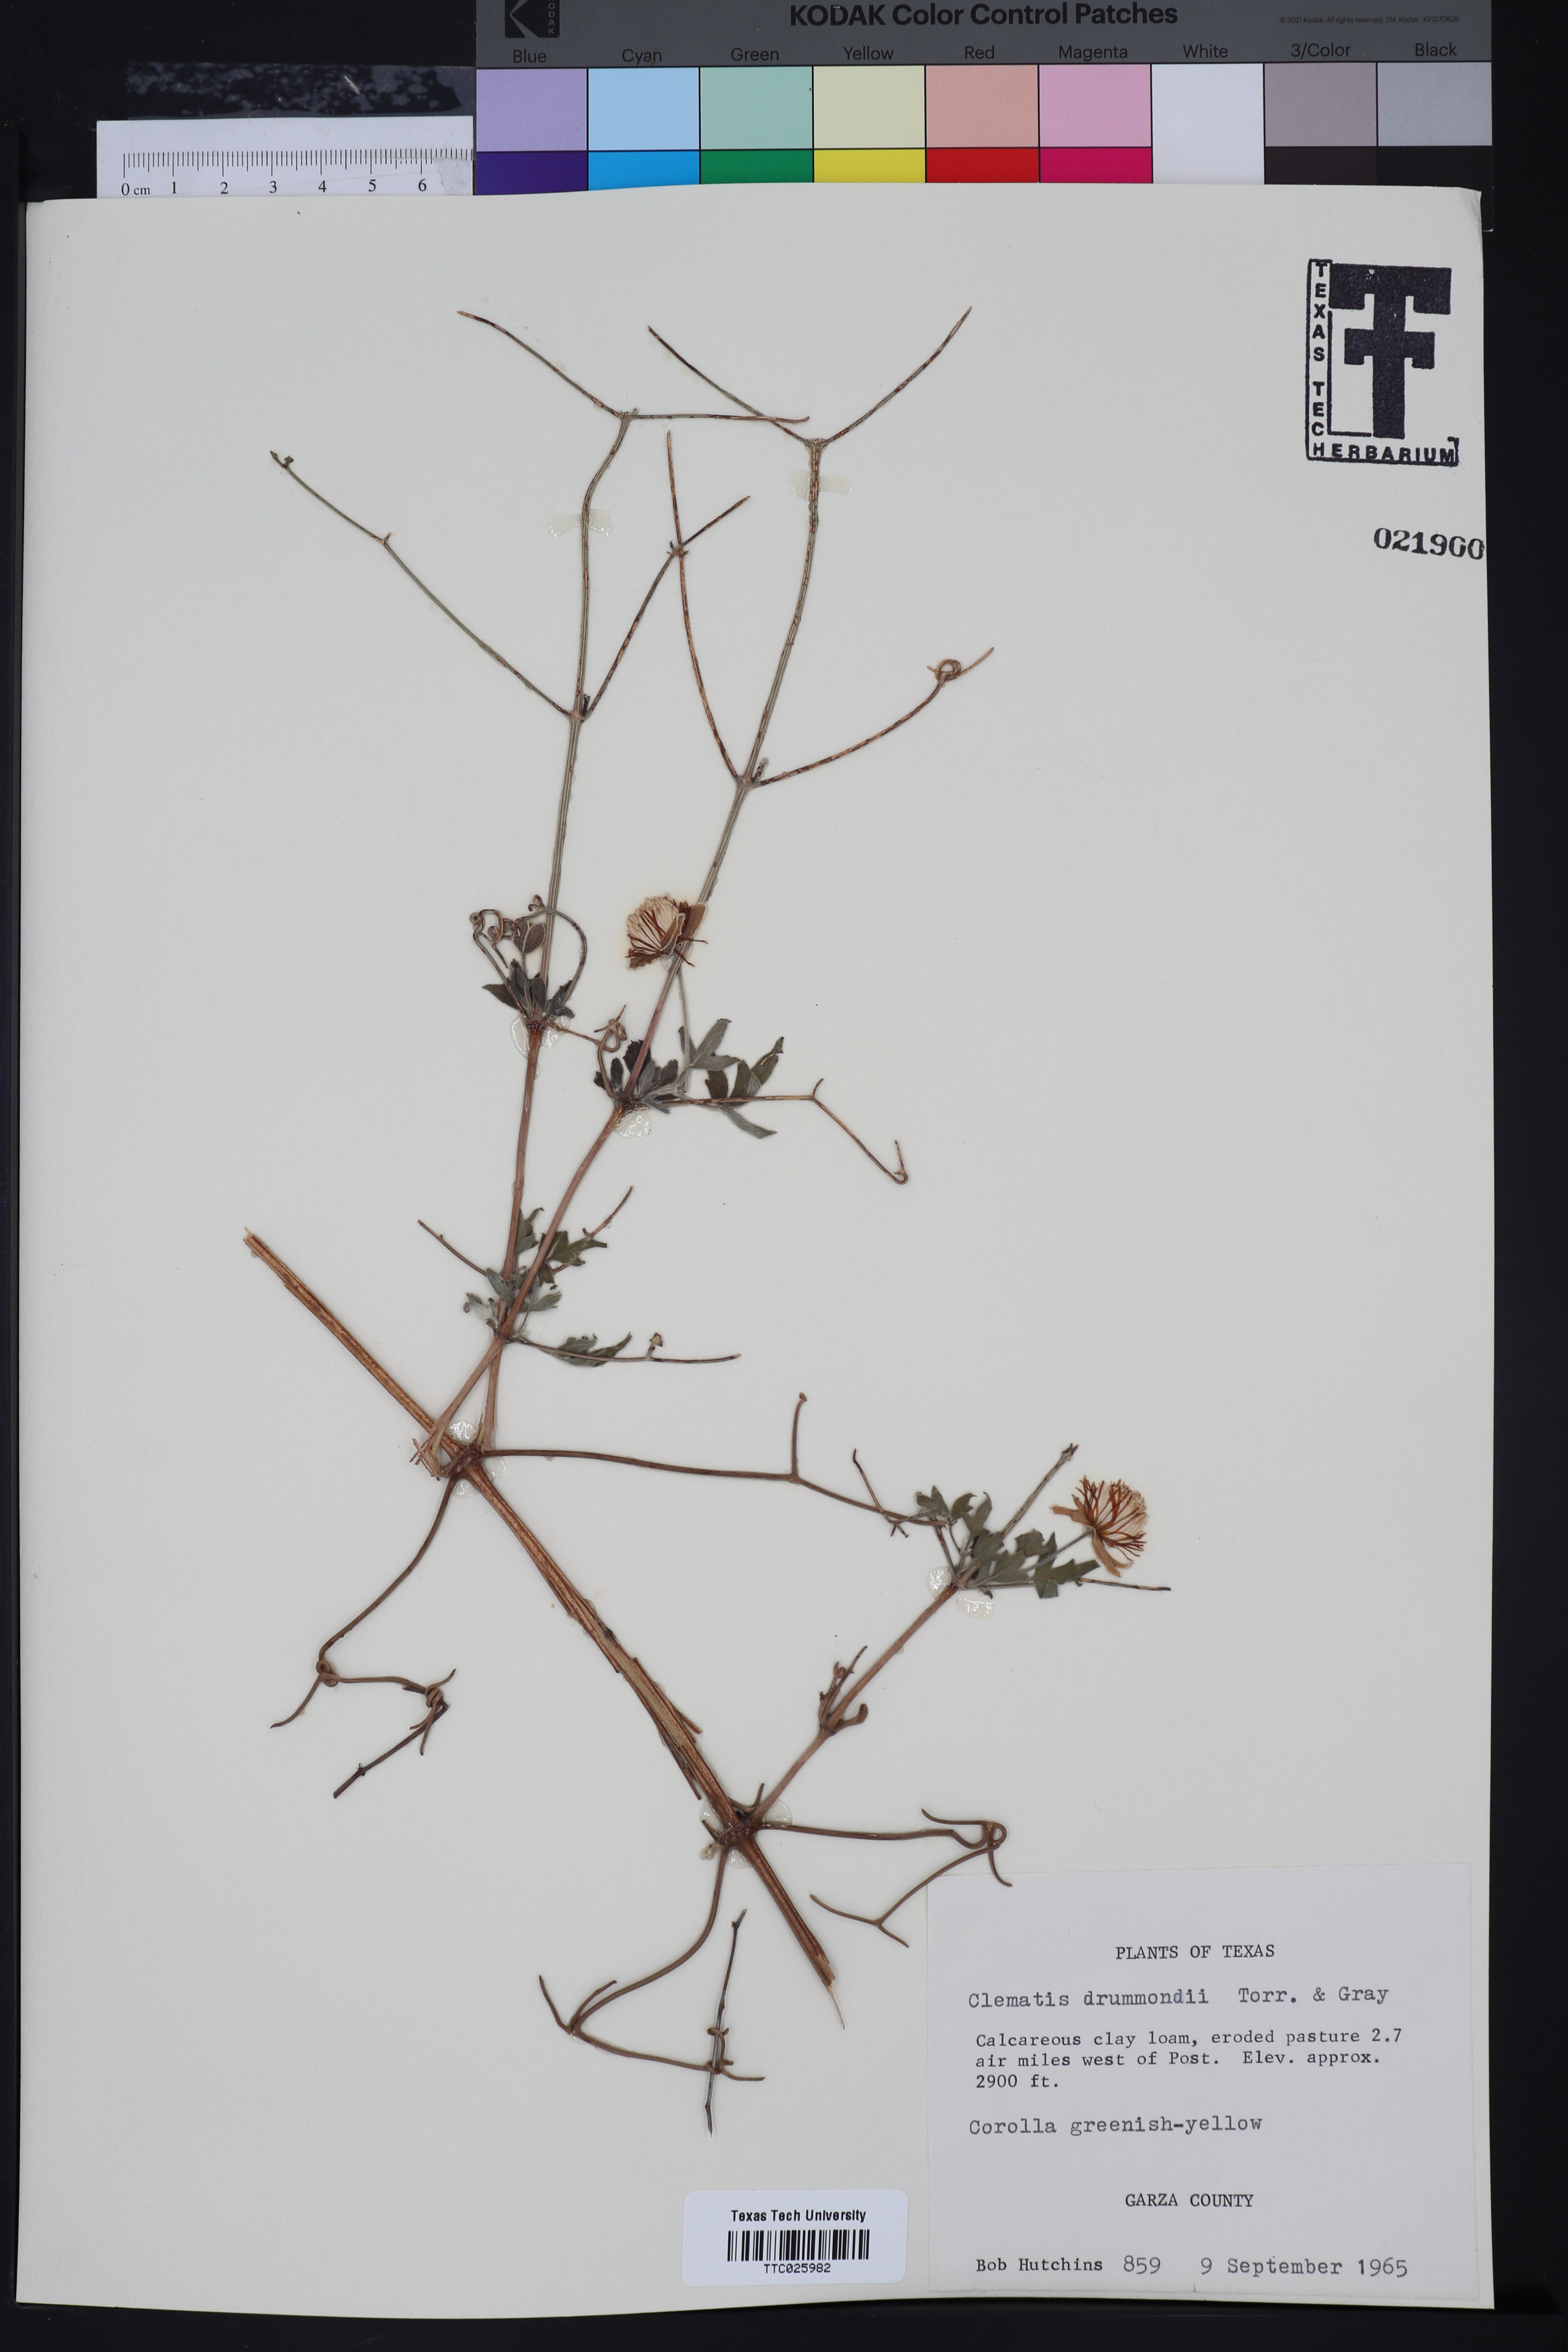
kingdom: Plantae
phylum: Tracheophyta
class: Magnoliopsida
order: Ranunculales
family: Ranunculaceae
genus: Clematis
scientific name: Clematis drummondii
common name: Texas virgin's bower
